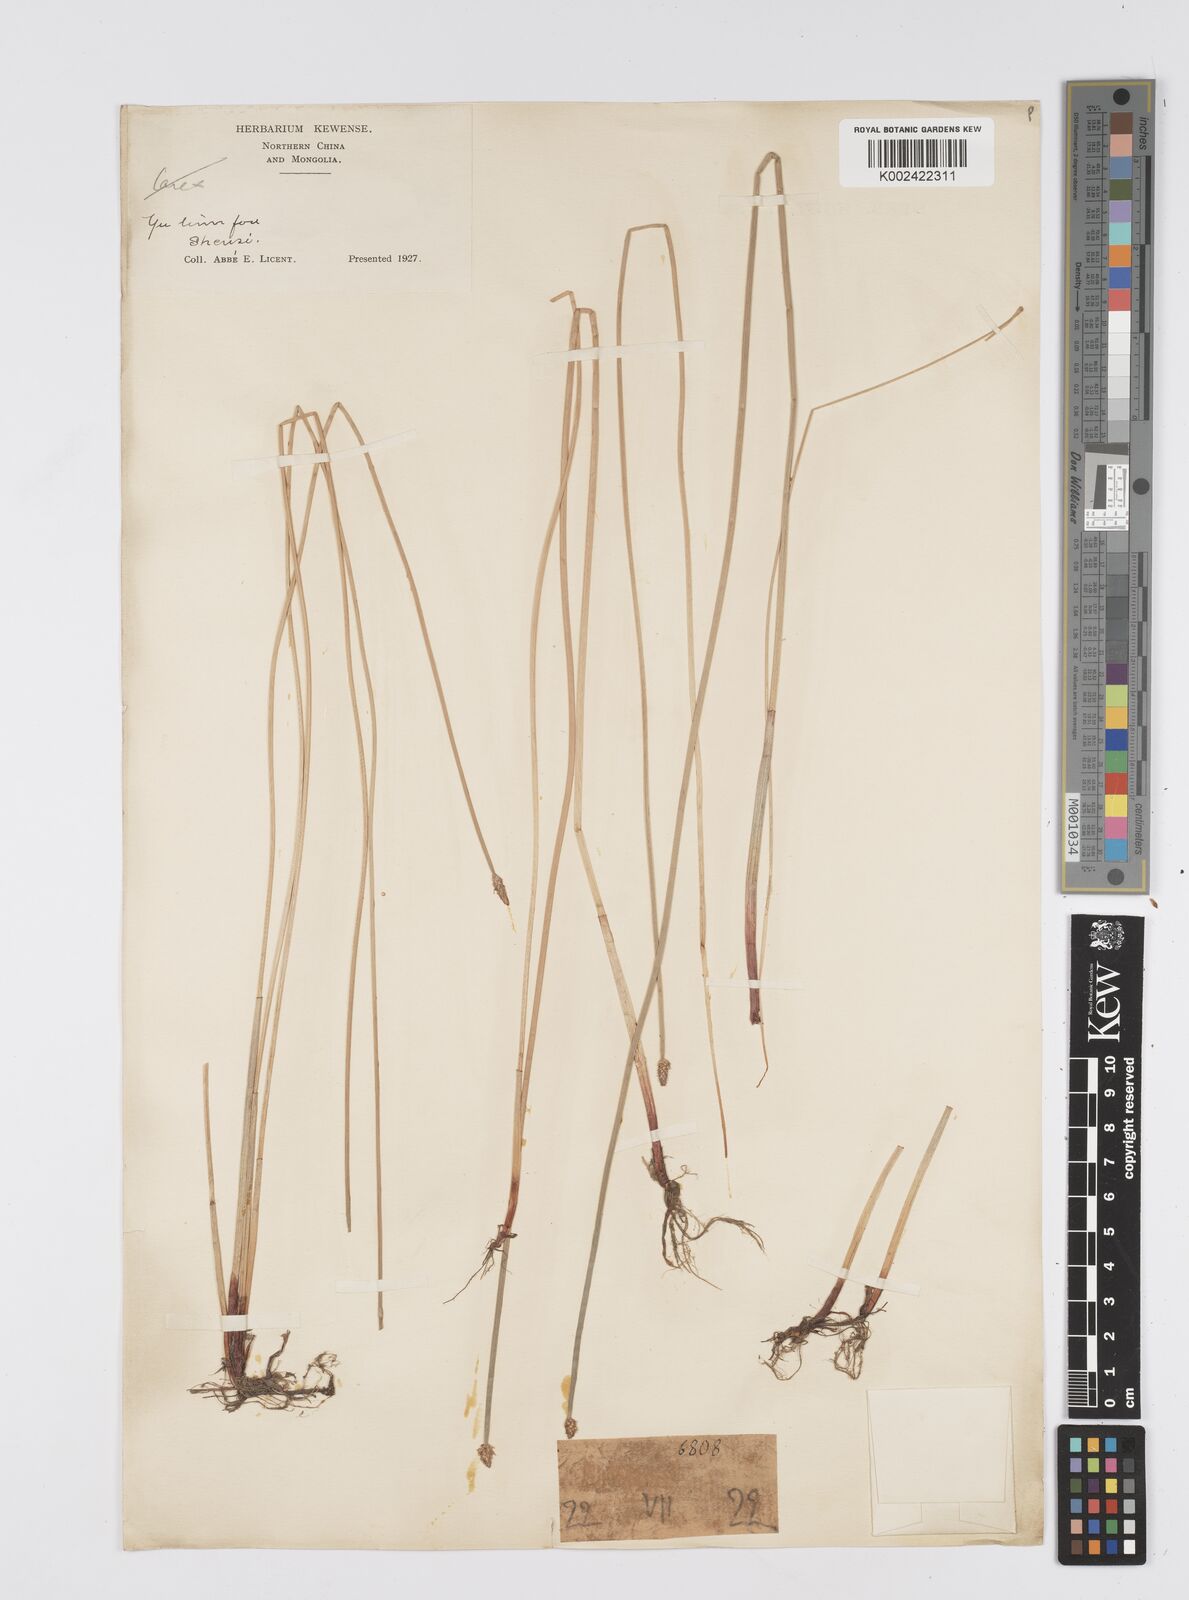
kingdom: Plantae
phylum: Tracheophyta
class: Liliopsida
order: Poales
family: Cyperaceae
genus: Eleocharis
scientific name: Eleocharis
